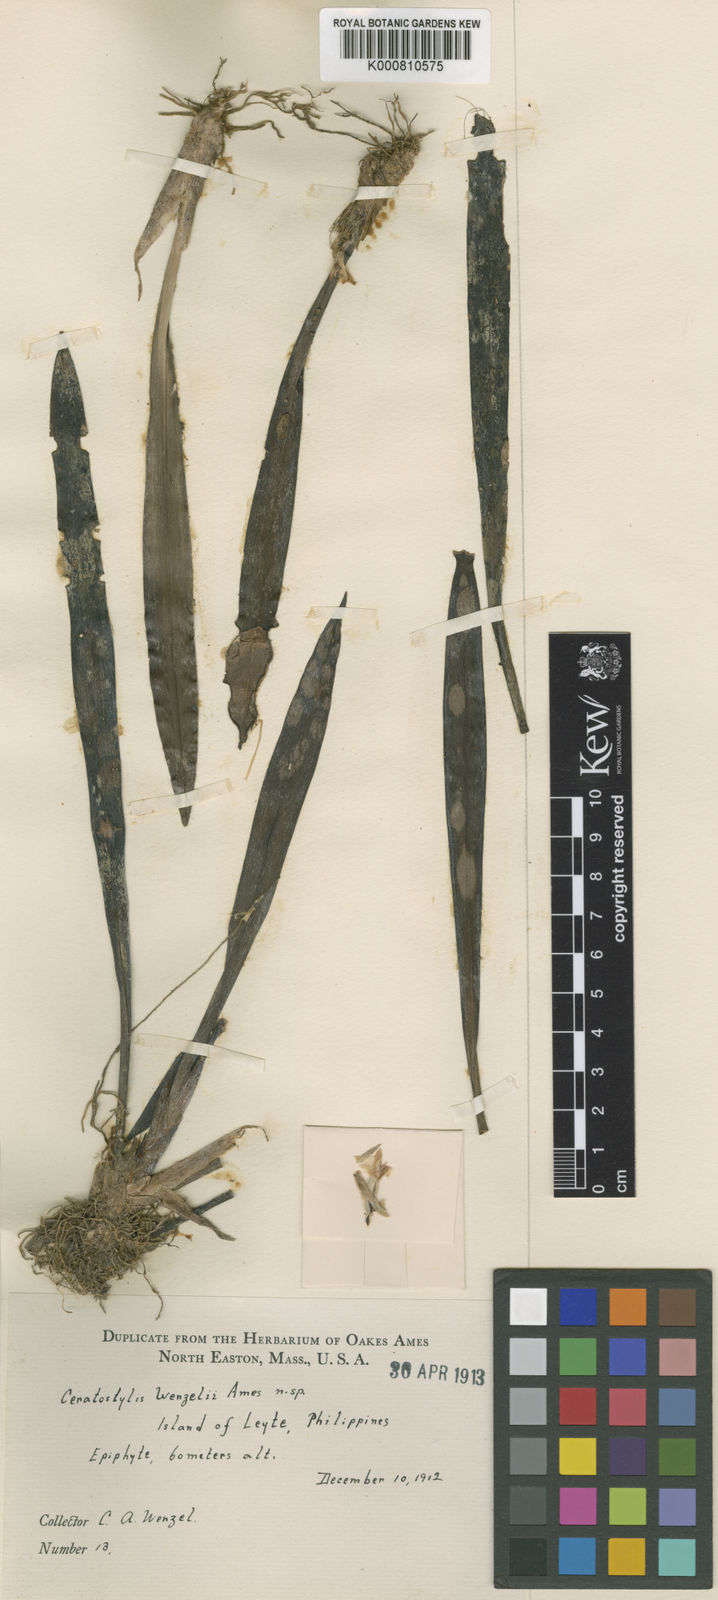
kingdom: Plantae
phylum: Tracheophyta
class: Liliopsida
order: Asparagales
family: Orchidaceae
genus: Ceratostylis
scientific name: Ceratostylis wenzelii
